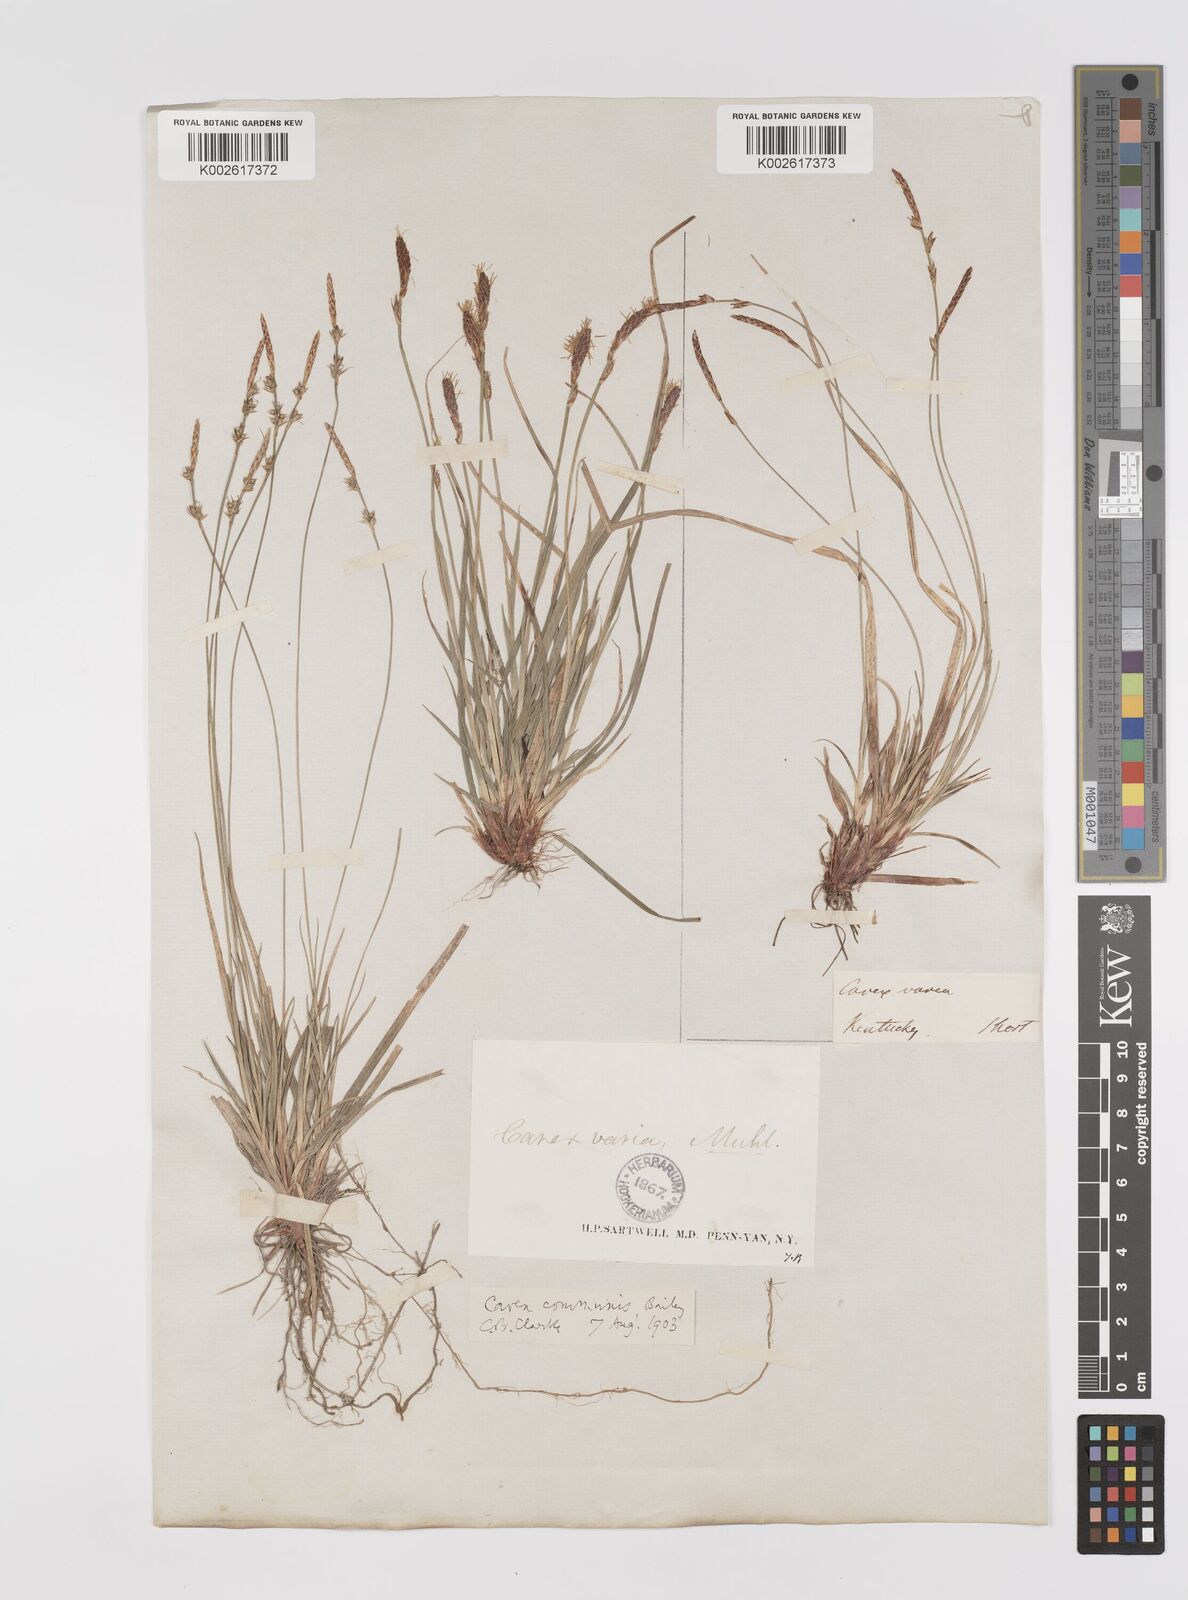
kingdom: Plantae
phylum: Tracheophyta
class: Liliopsida
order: Poales
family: Cyperaceae
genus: Carex
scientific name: Carex communis
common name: Colonial oak sedge
